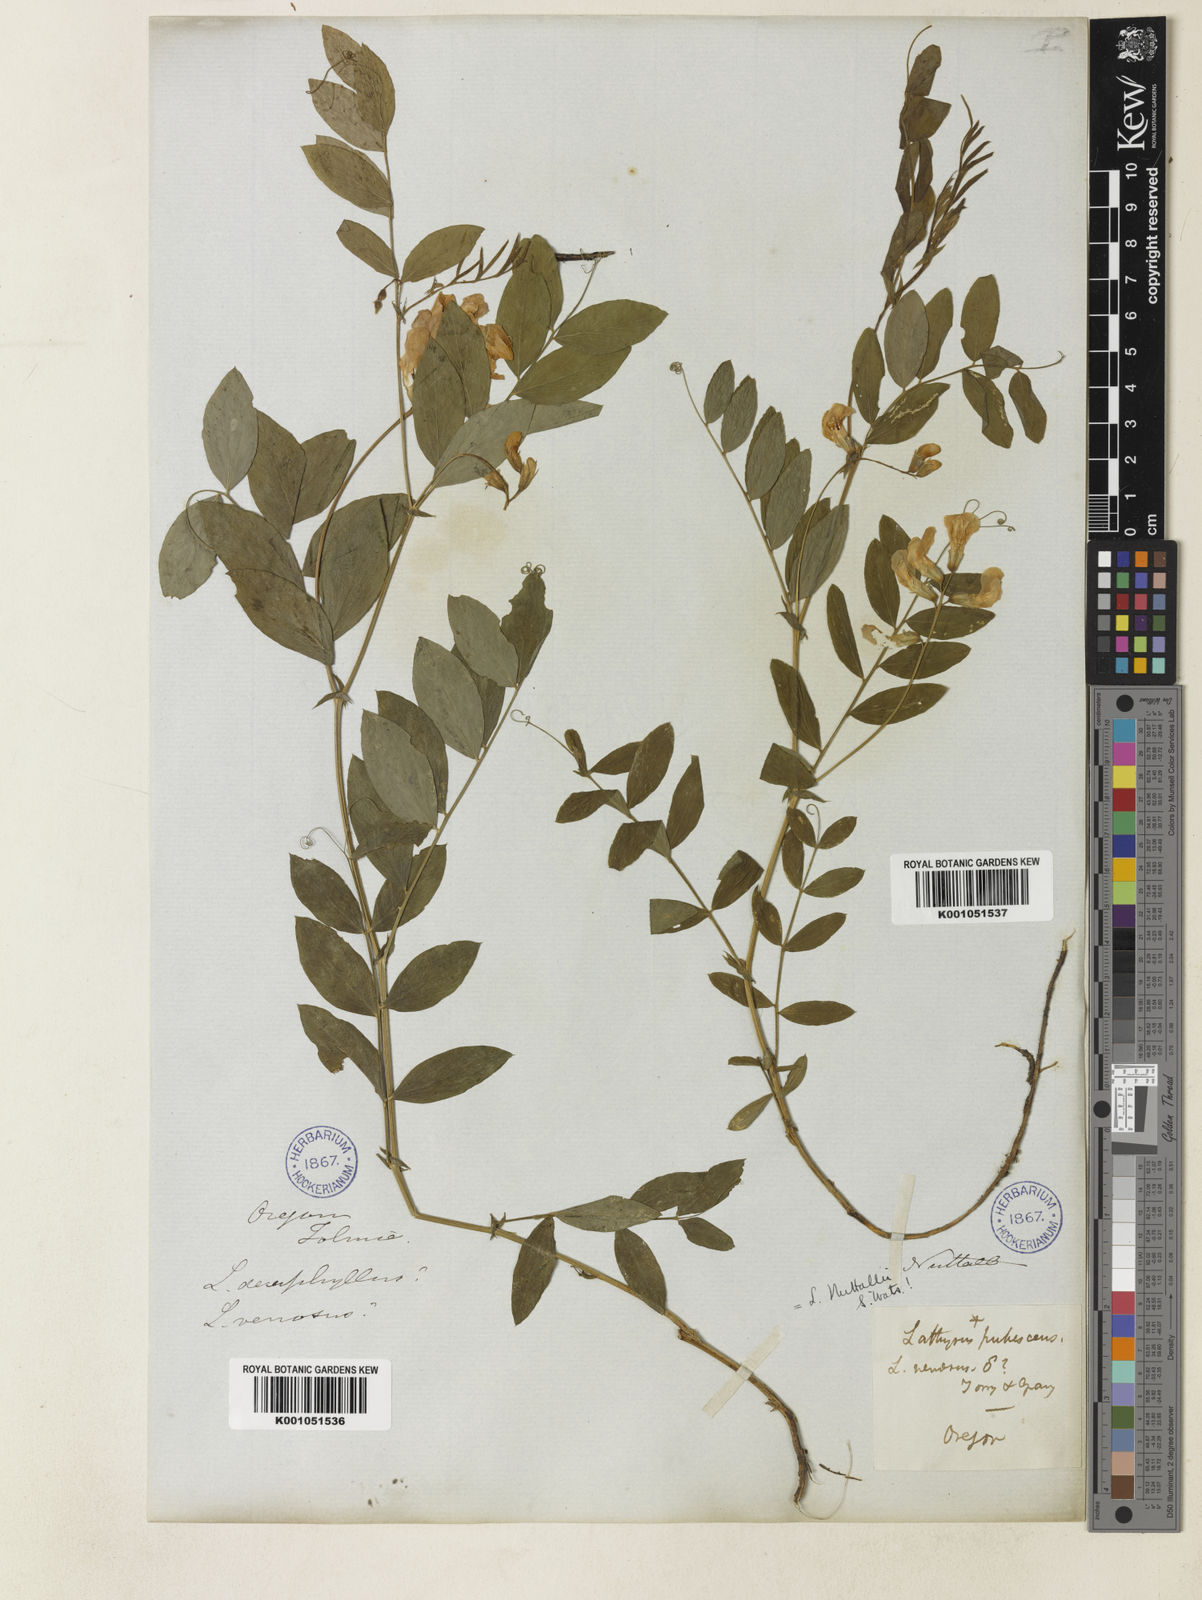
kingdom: Plantae
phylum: Tracheophyta
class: Magnoliopsida
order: Fabales
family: Fabaceae
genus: Lathyrus
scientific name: Lathyrus venosus
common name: Forest-pea
